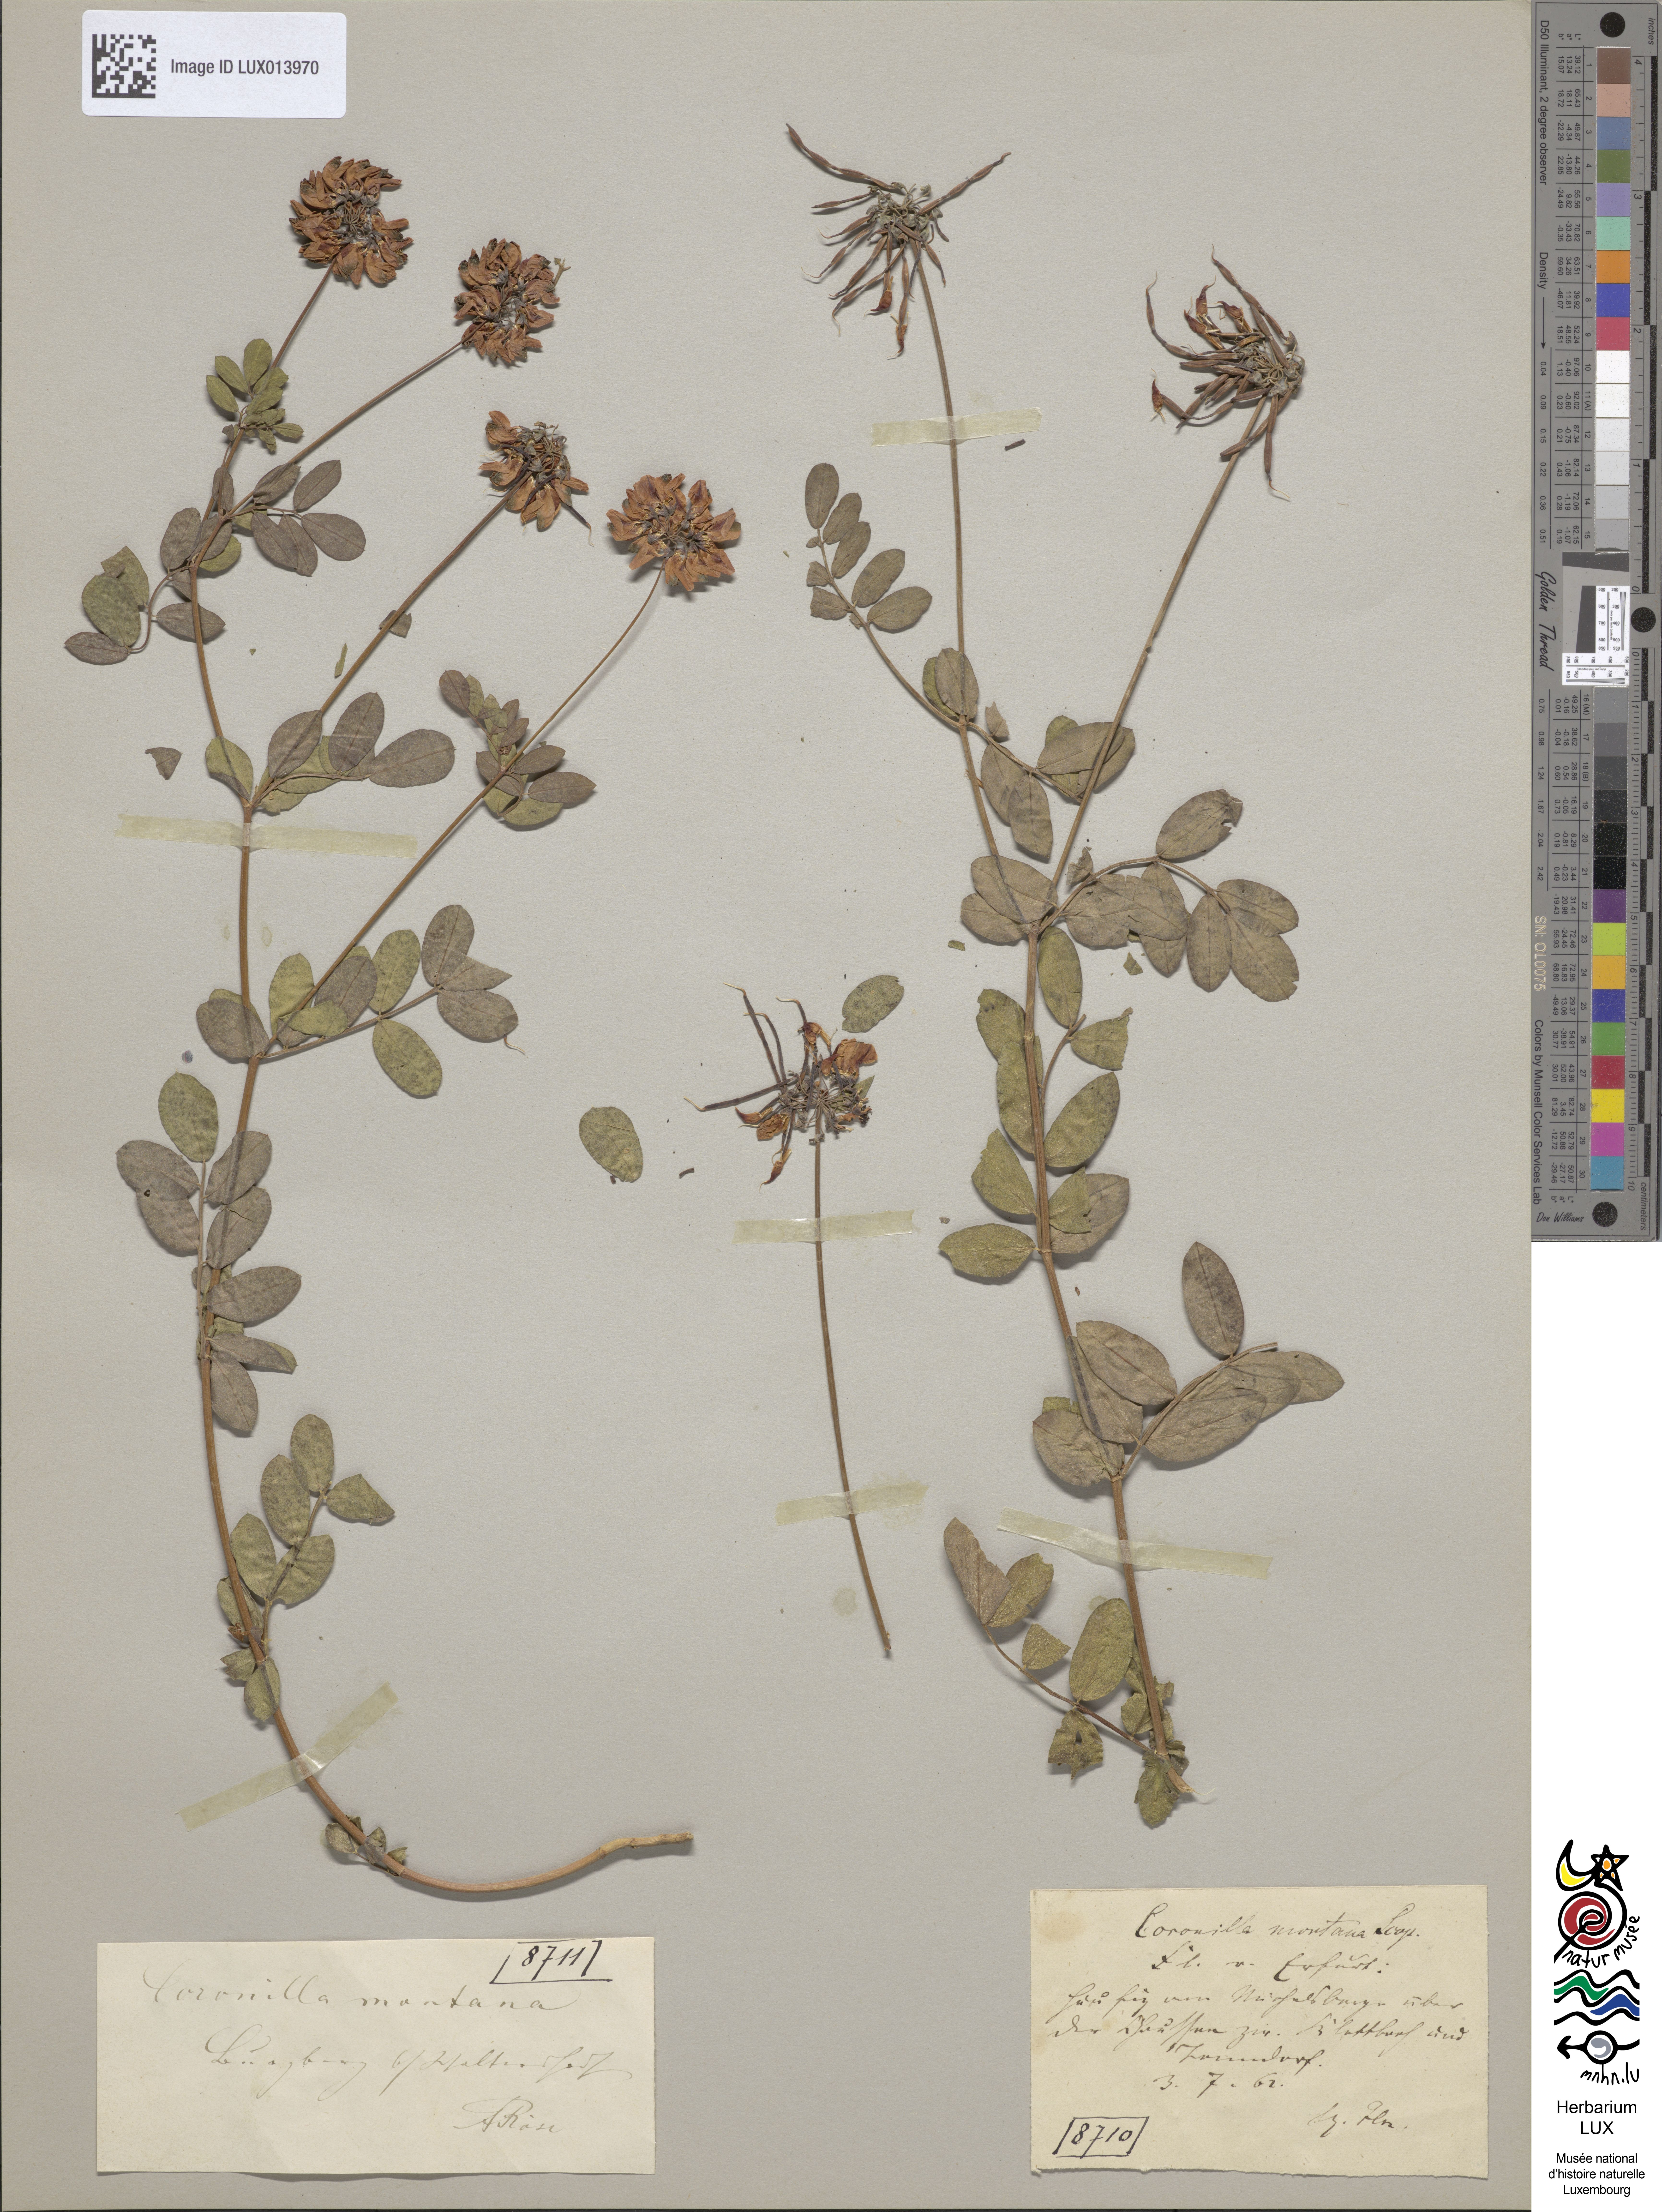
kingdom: Plantae
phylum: Tracheophyta
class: Magnoliopsida
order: Fabales
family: Fabaceae
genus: Coronilla
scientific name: Coronilla coronata
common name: Scorpion-vetch
